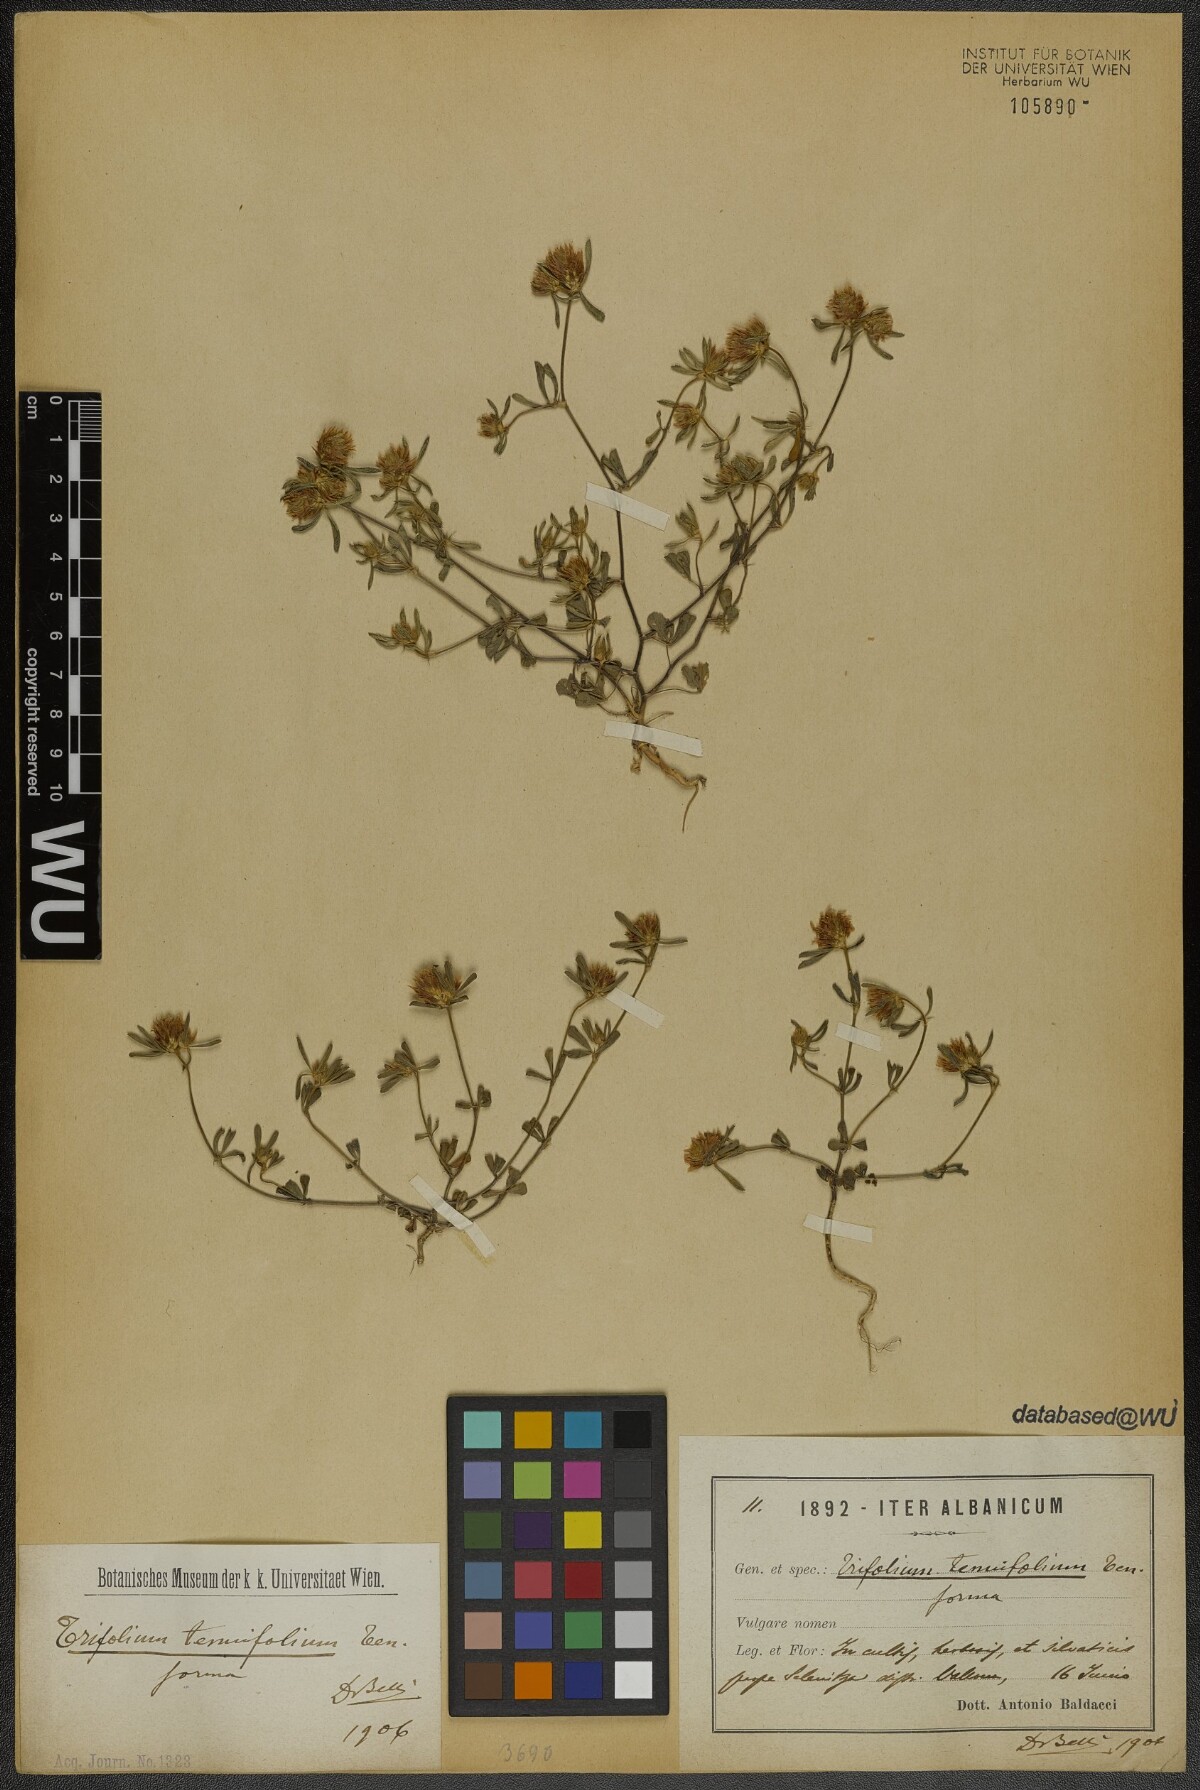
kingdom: Plantae
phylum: Tracheophyta
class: Magnoliopsida
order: Fabales
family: Fabaceae
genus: Trifolium
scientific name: Trifolium tenuifolium
